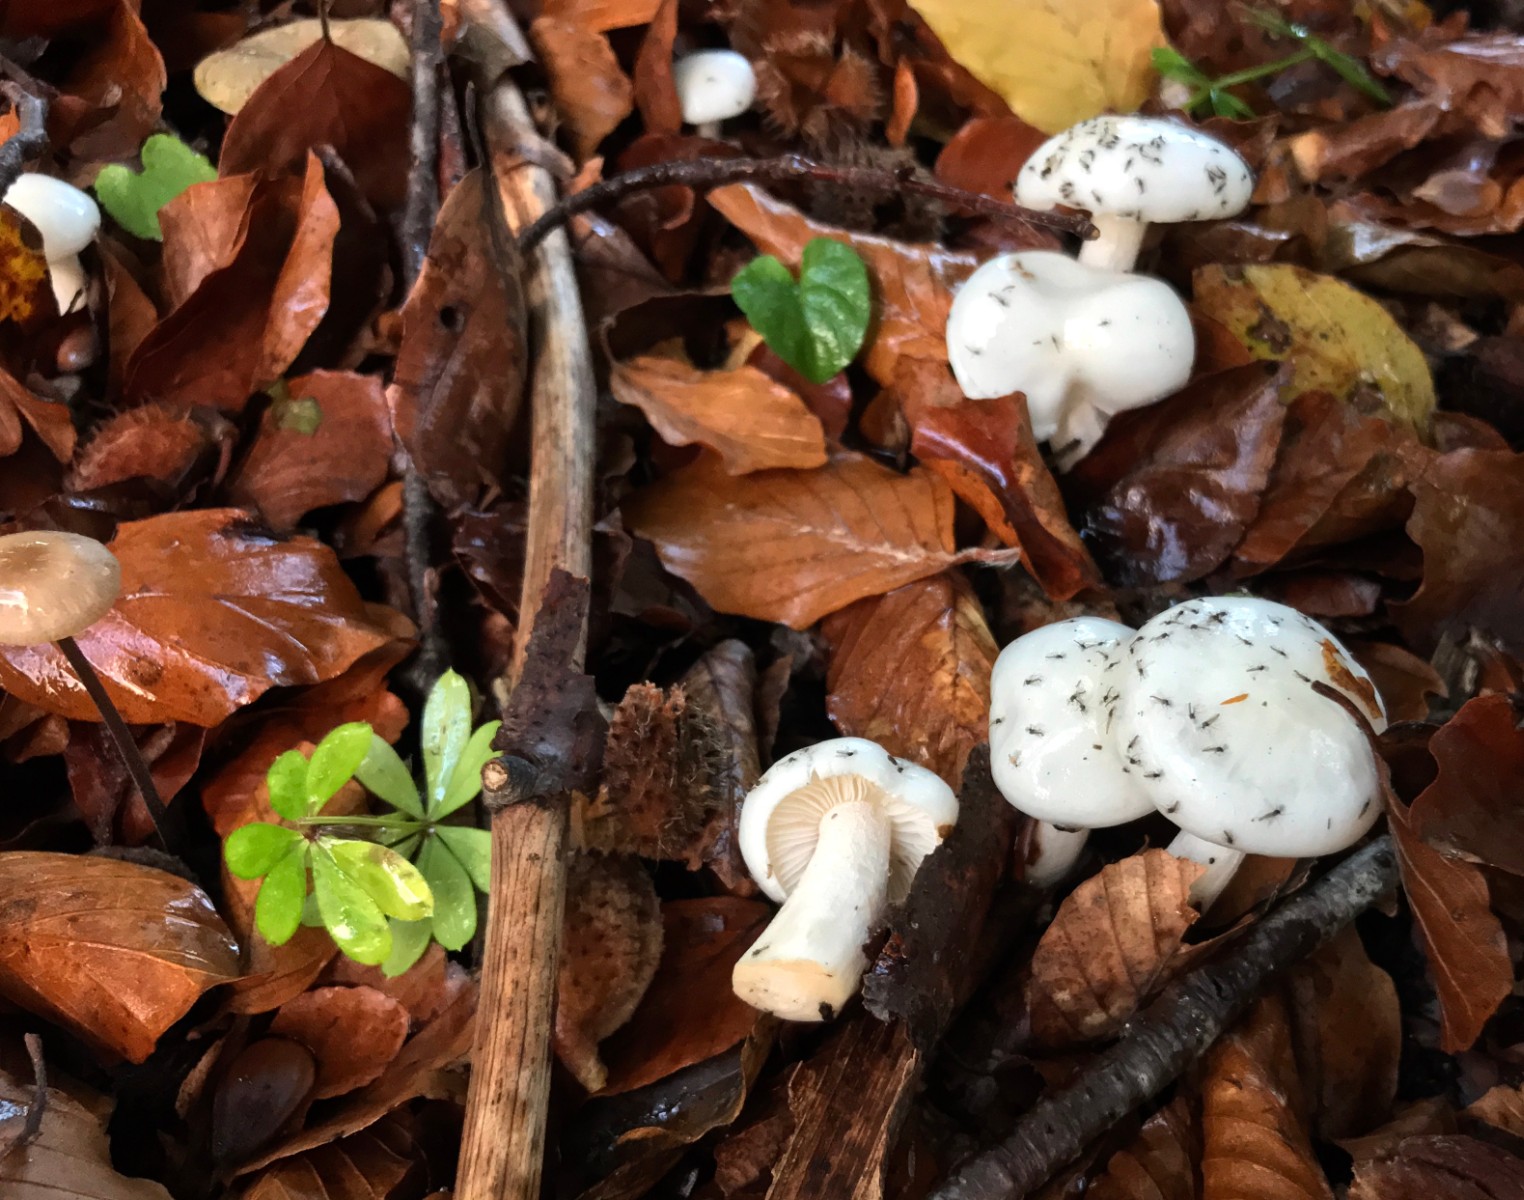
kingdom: Fungi
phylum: Basidiomycota
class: Agaricomycetes
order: Agaricales
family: Hygrophoraceae
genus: Hygrophorus
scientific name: Hygrophorus eburneus
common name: elfenbens-sneglehat
